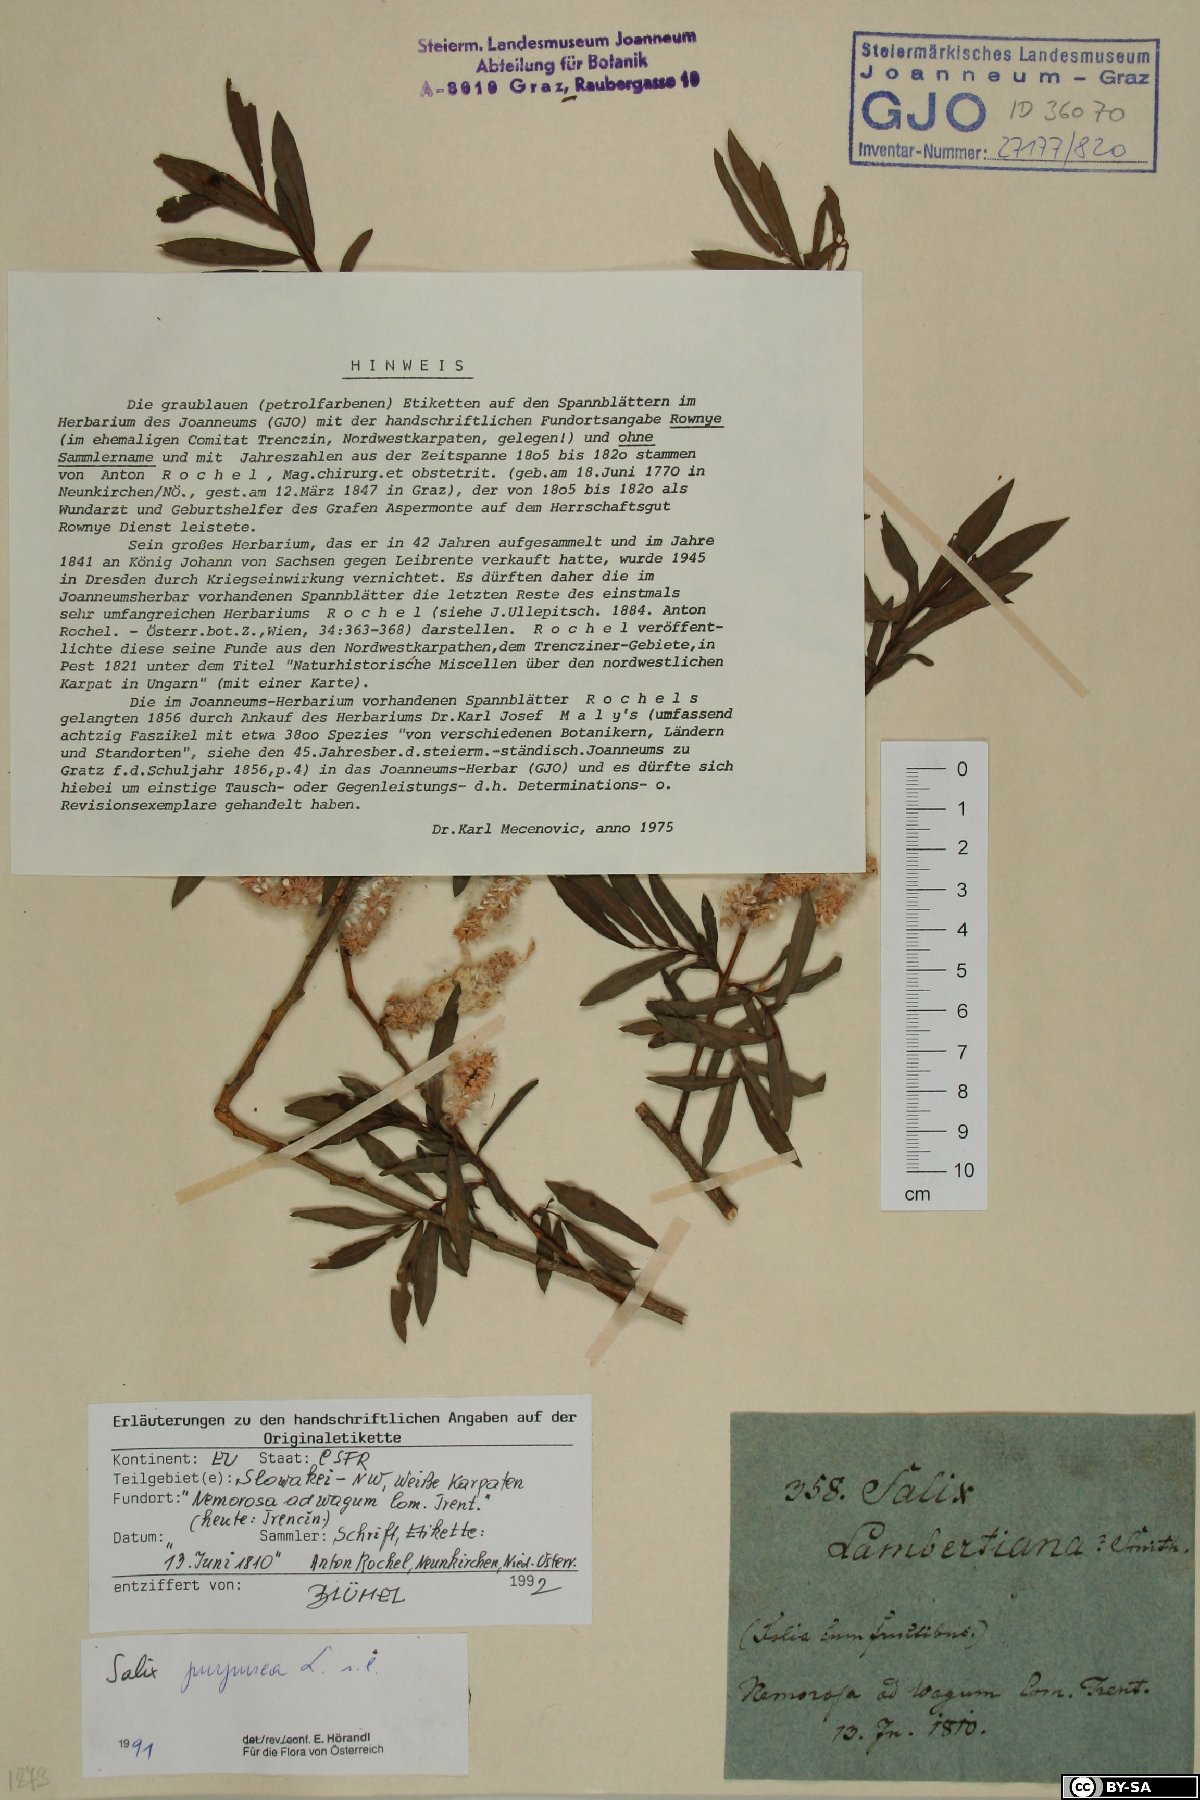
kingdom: Plantae
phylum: Tracheophyta
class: Magnoliopsida
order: Malpighiales
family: Salicaceae
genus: Salix
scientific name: Salix purpurea
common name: Purple willow
